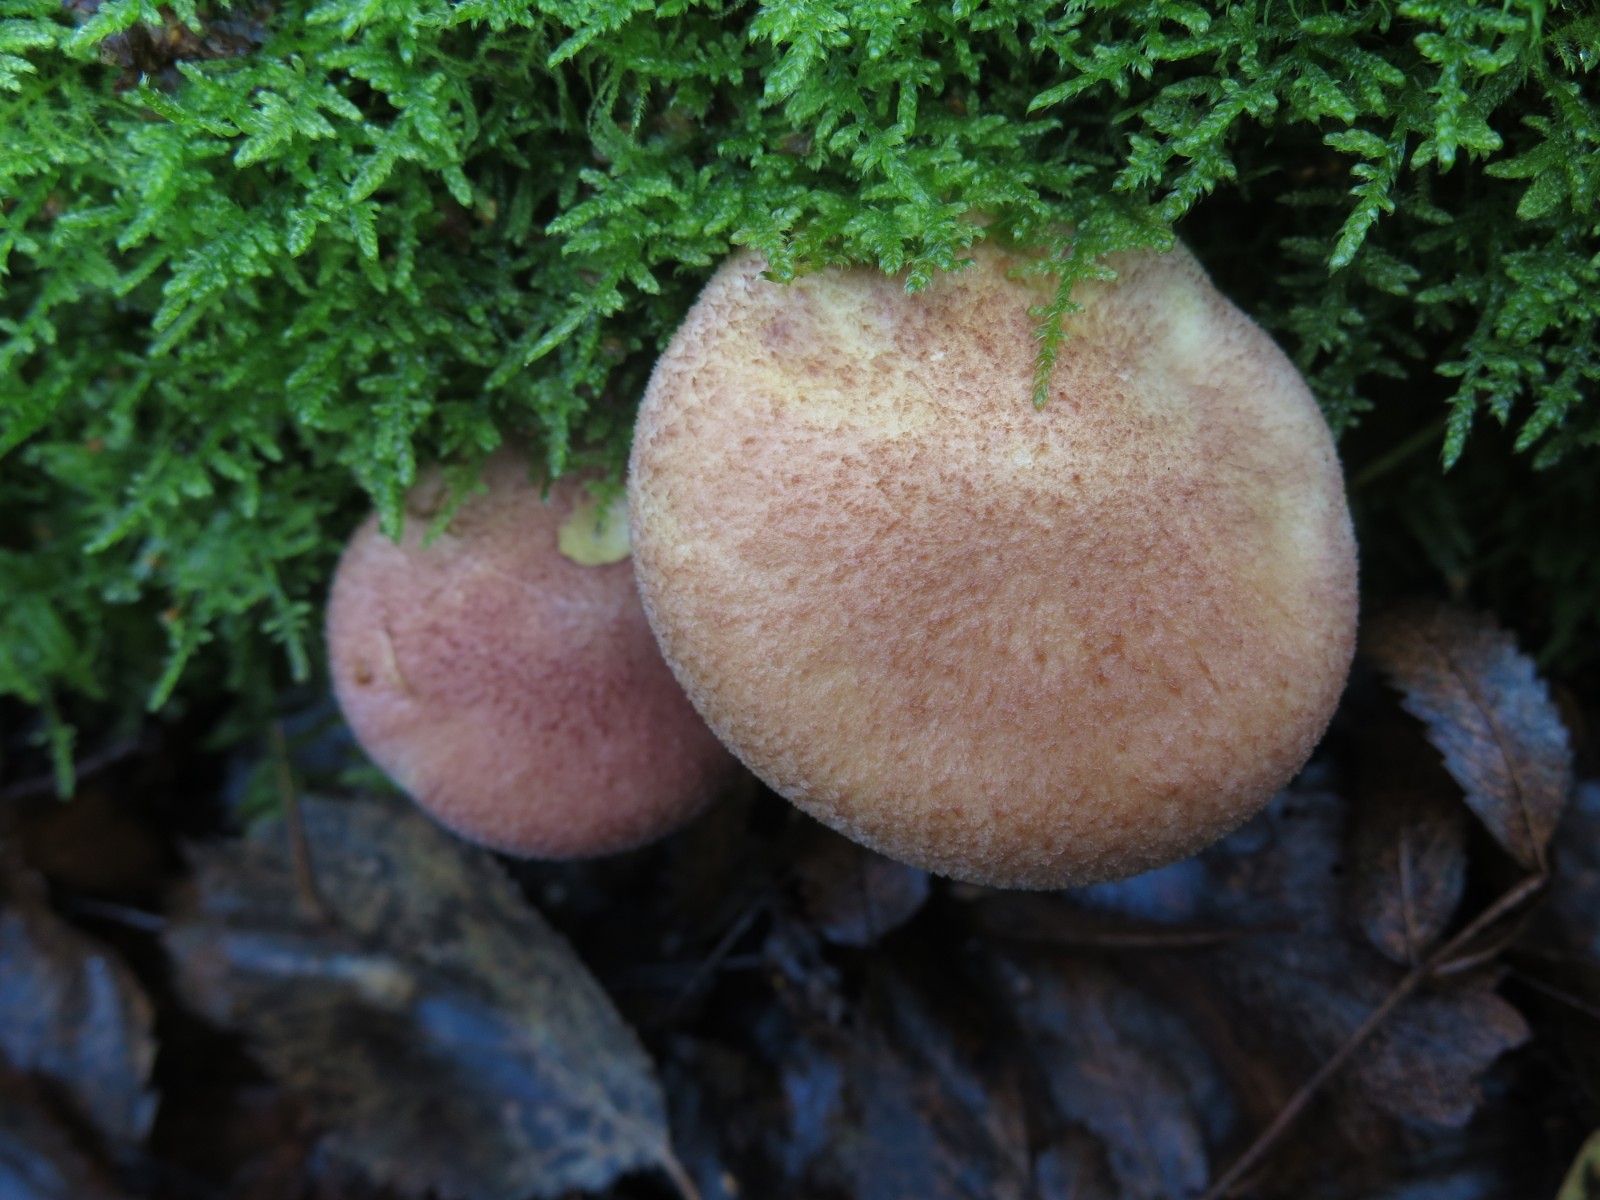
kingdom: Fungi
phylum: Basidiomycota
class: Agaricomycetes
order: Agaricales
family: Tricholomataceae
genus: Tricholomopsis
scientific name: Tricholomopsis rutilans
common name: purpur-væbnerhat
